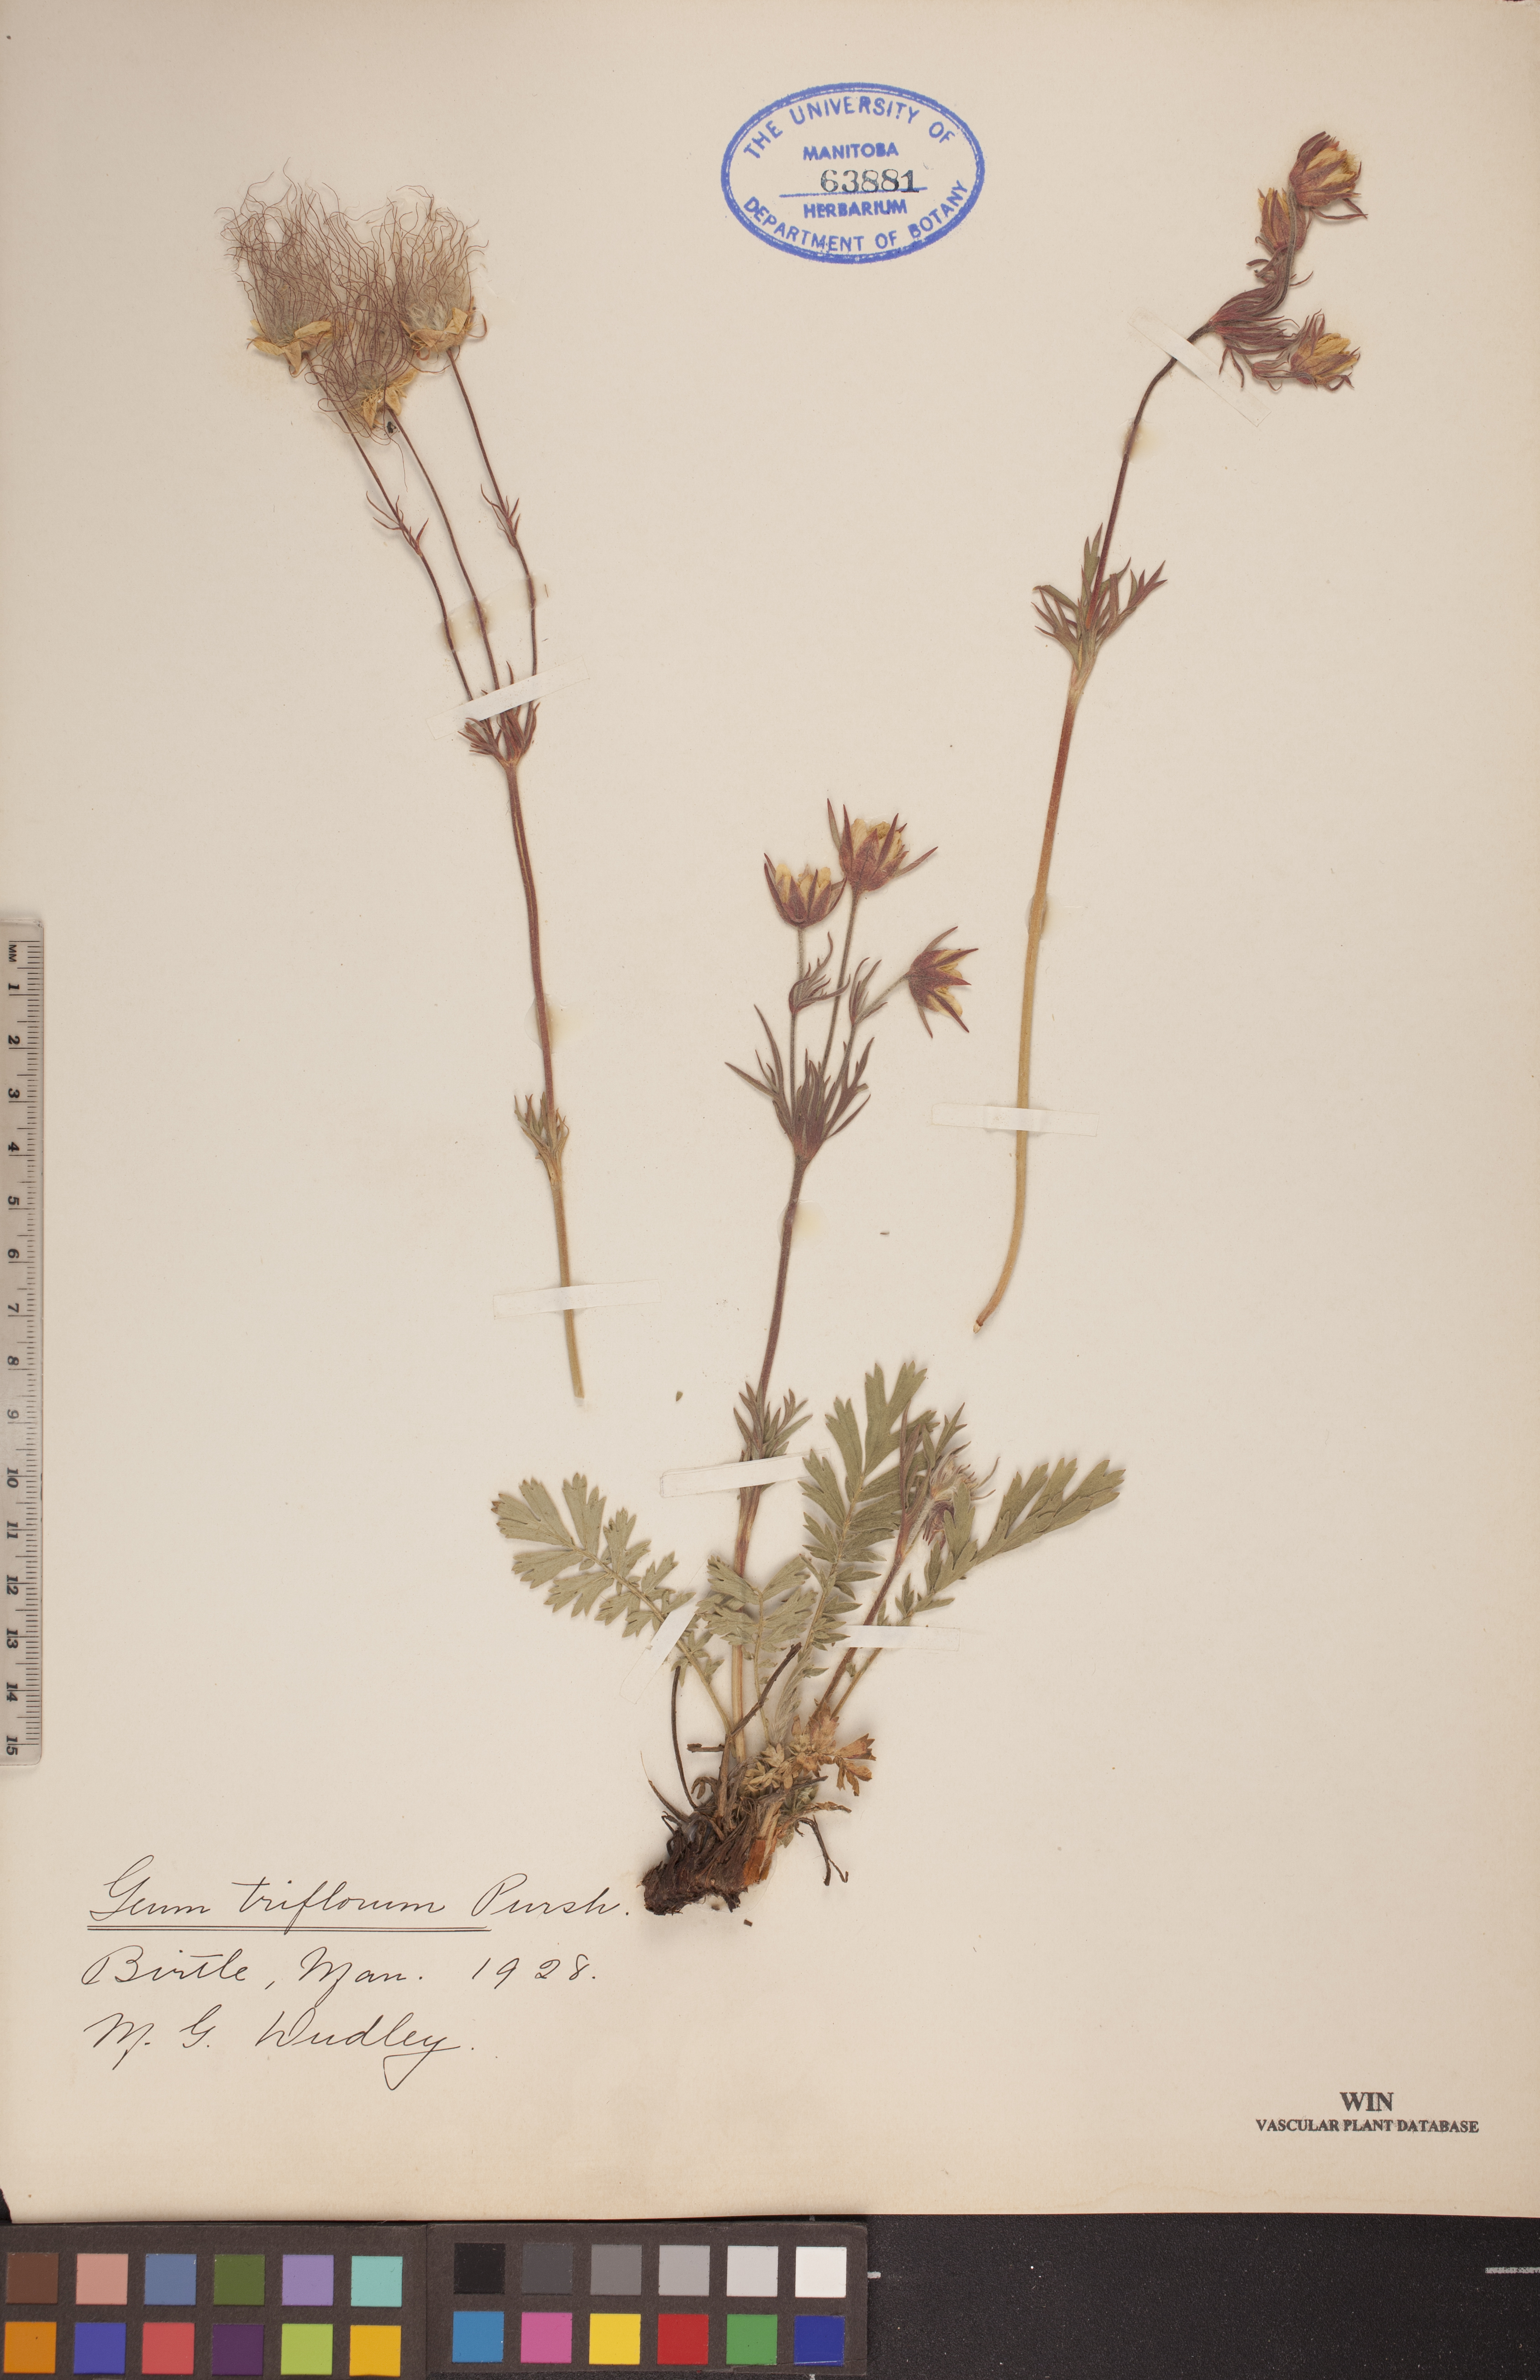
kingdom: Plantae
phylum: Tracheophyta
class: Magnoliopsida
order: Rosales
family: Rosaceae
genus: Geum
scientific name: Geum triflorum
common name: Old man's whiskers
